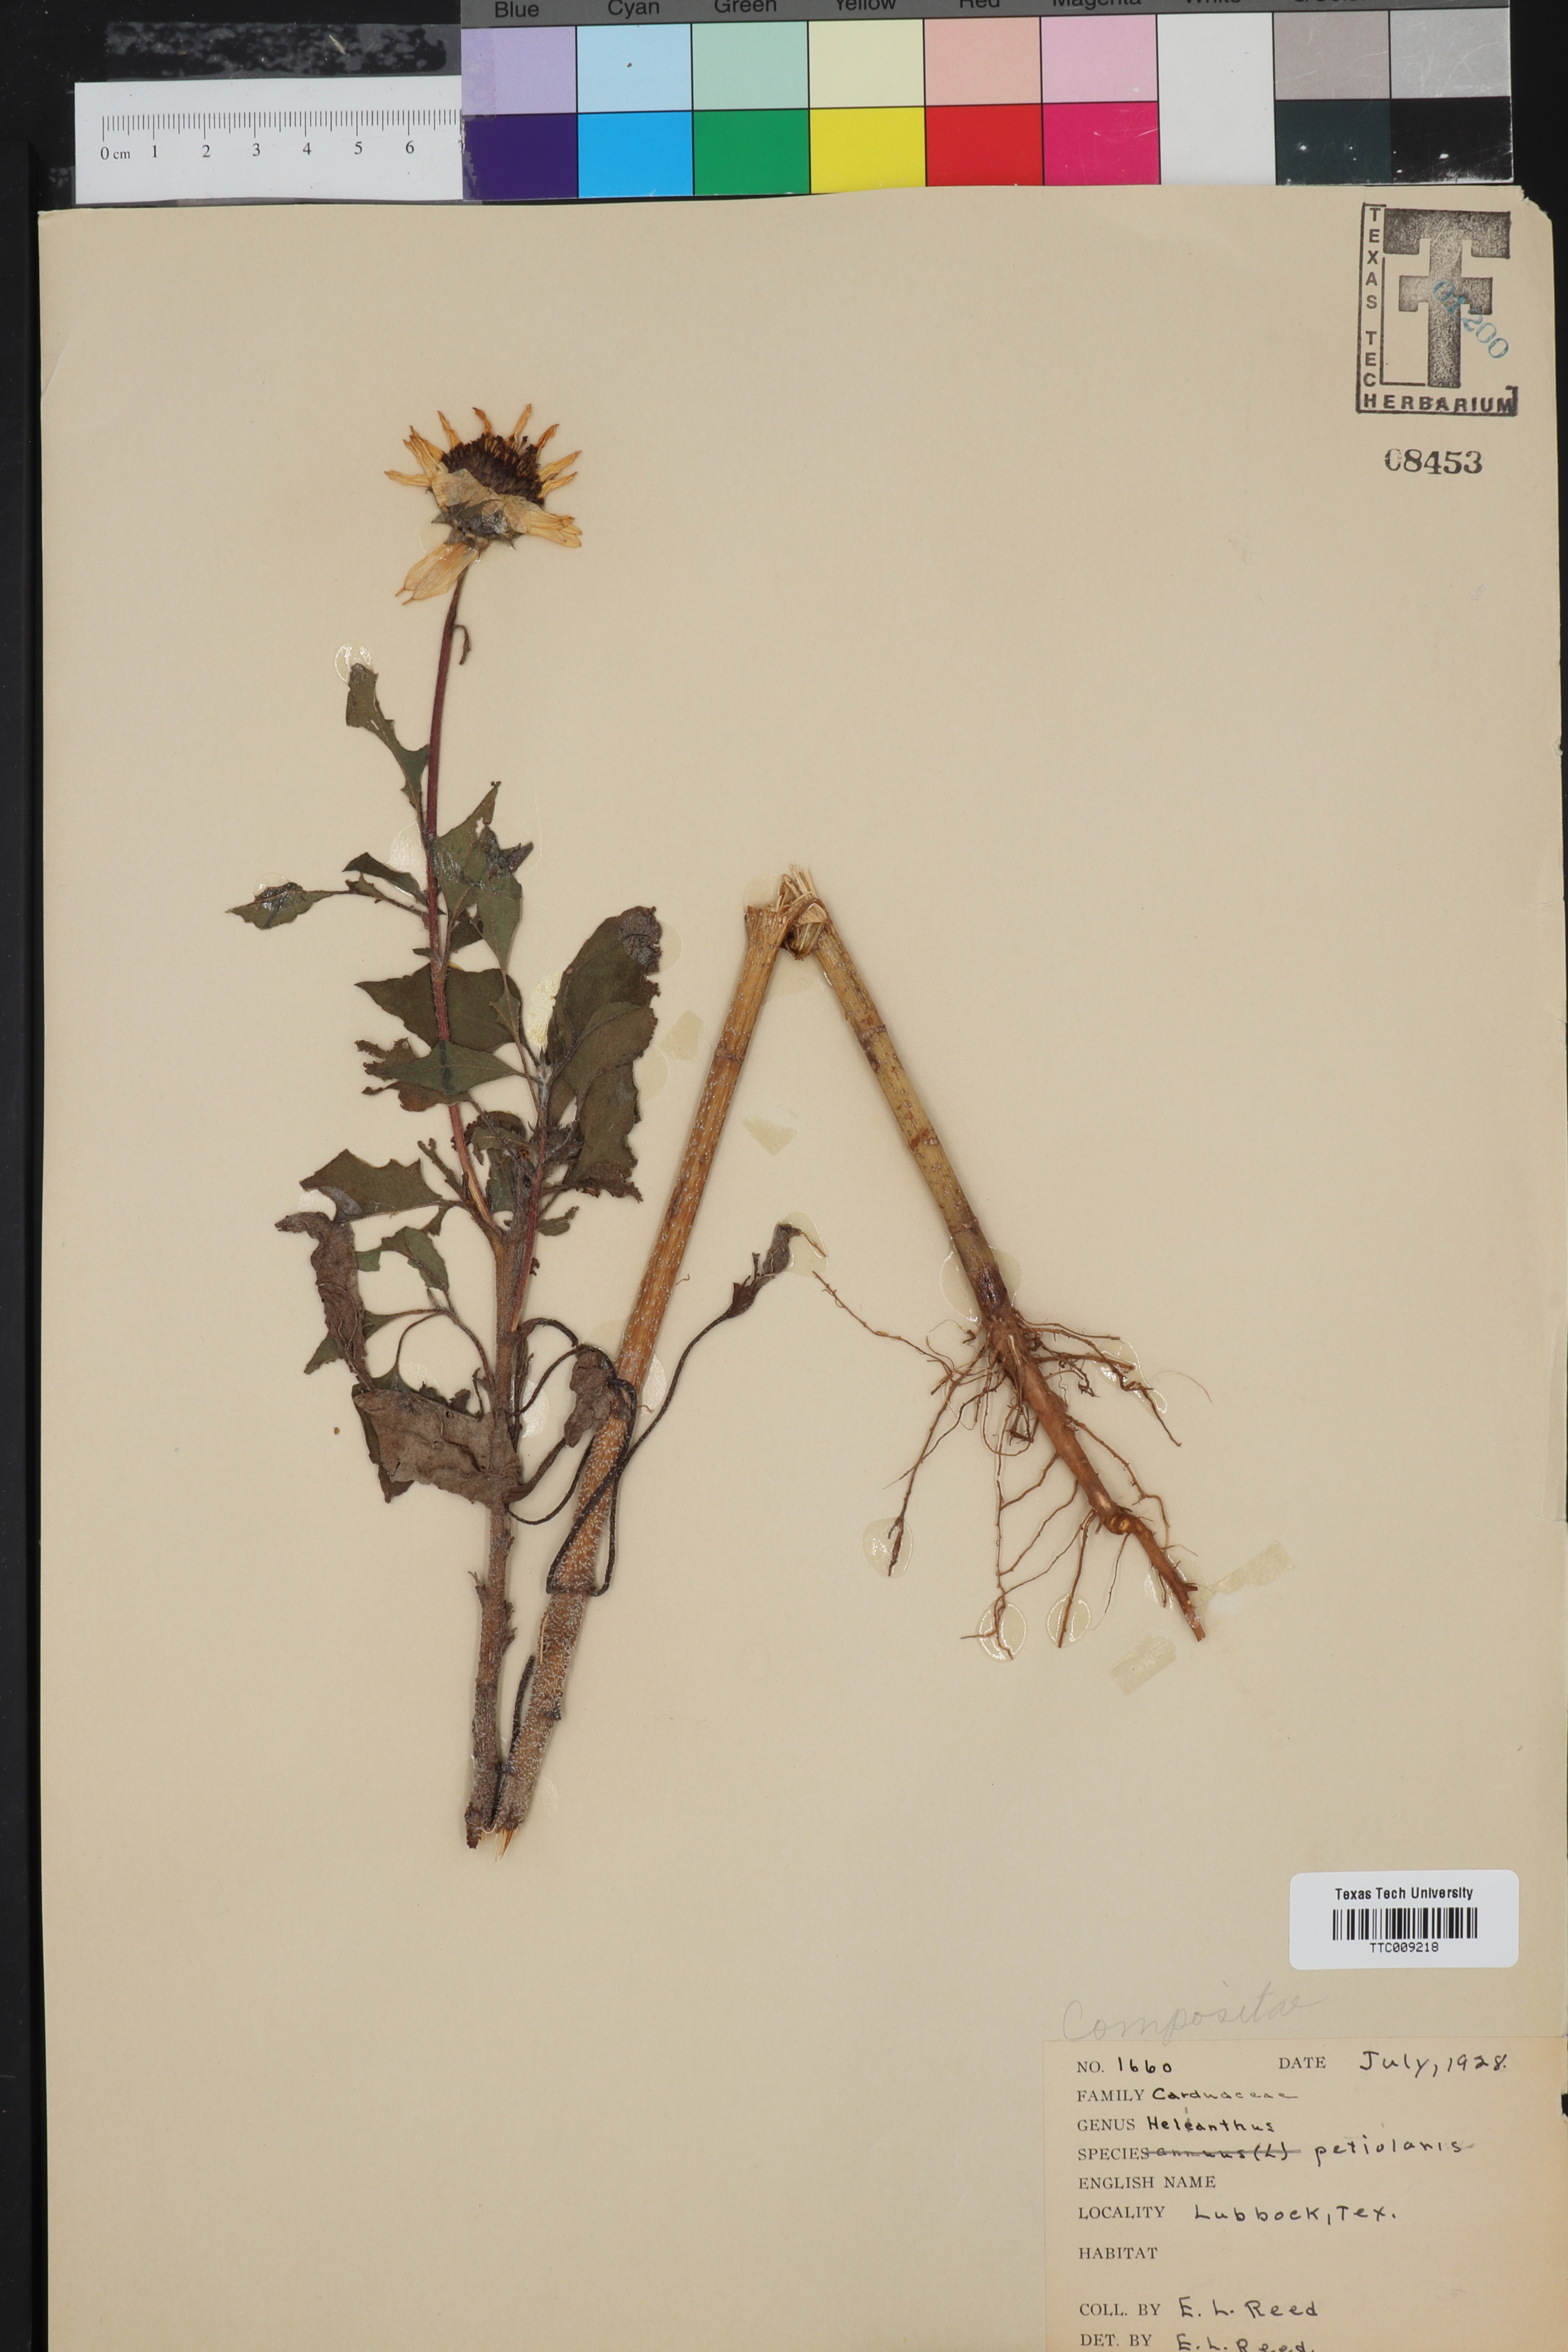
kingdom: Plantae
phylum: Tracheophyta
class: Magnoliopsida
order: Asterales
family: Asteraceae
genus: Helianthus
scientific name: Helianthus petiolaris
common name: Lesser sunflower
